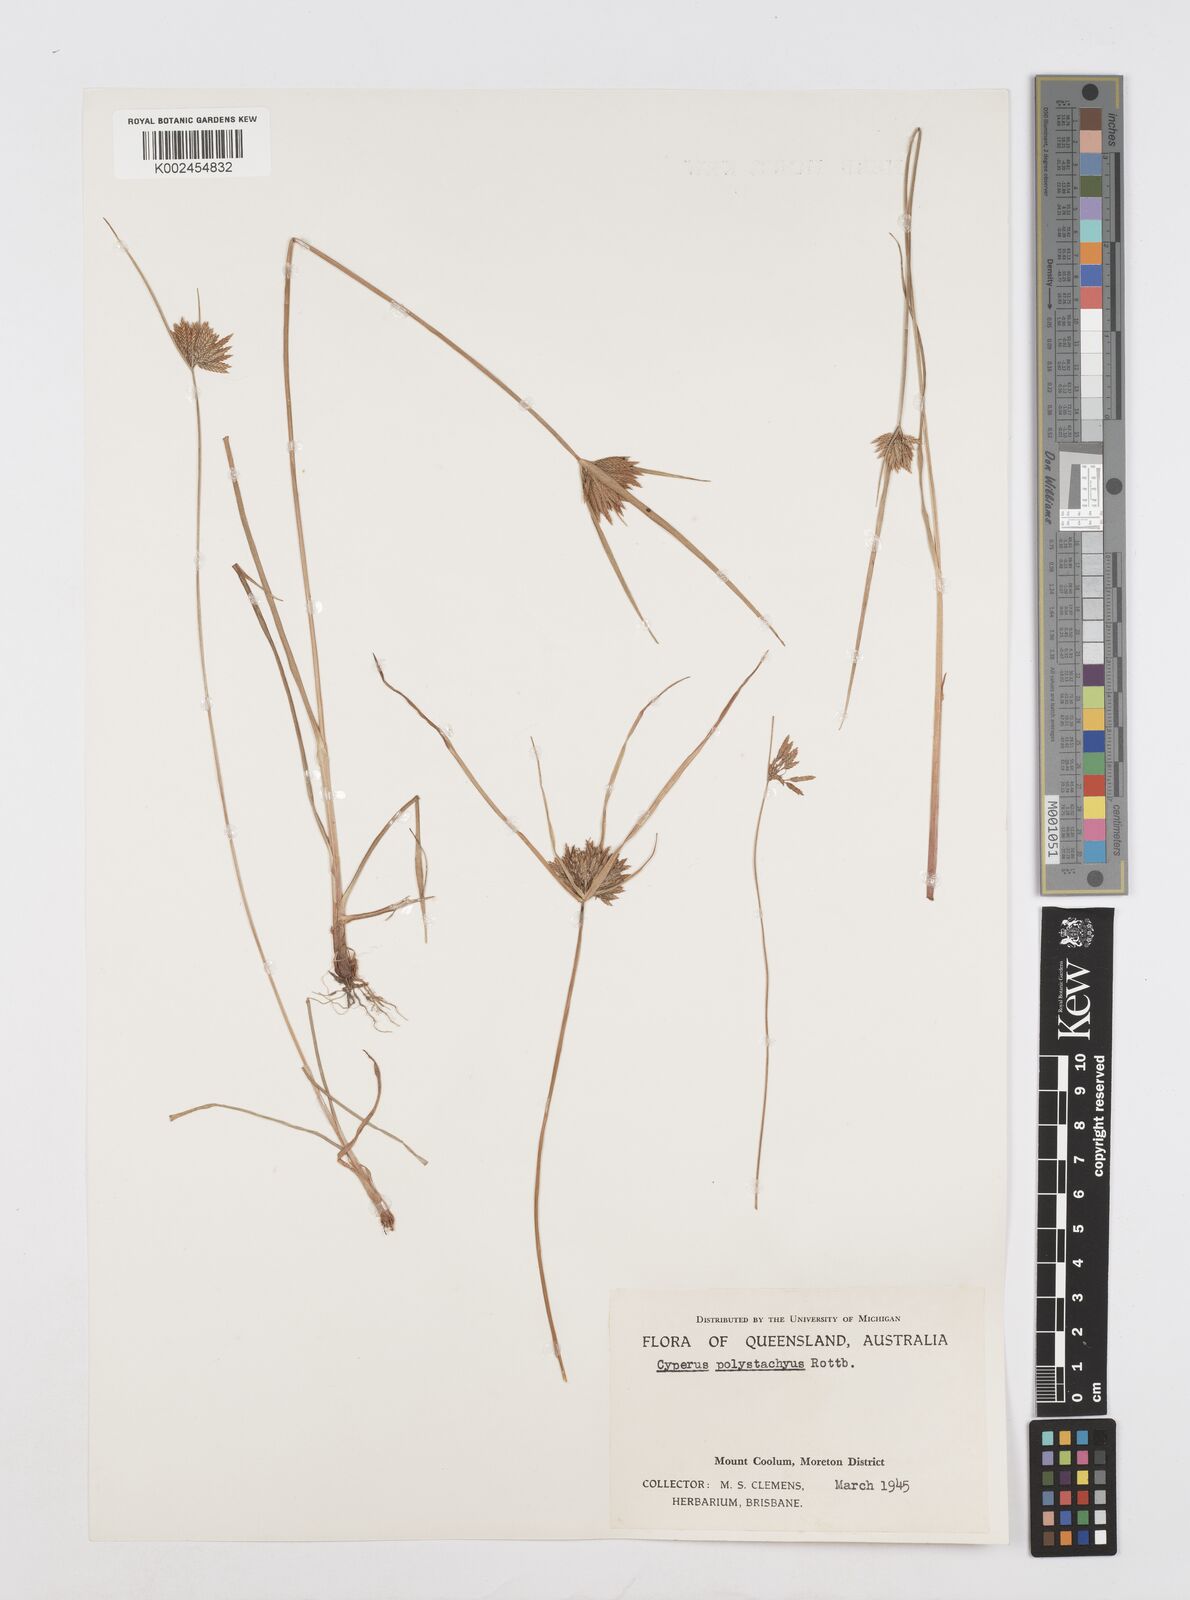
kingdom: Plantae
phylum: Tracheophyta
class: Liliopsida
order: Poales
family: Cyperaceae
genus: Cyperus
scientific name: Cyperus polystachyos
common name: Bunchy flat sedge
